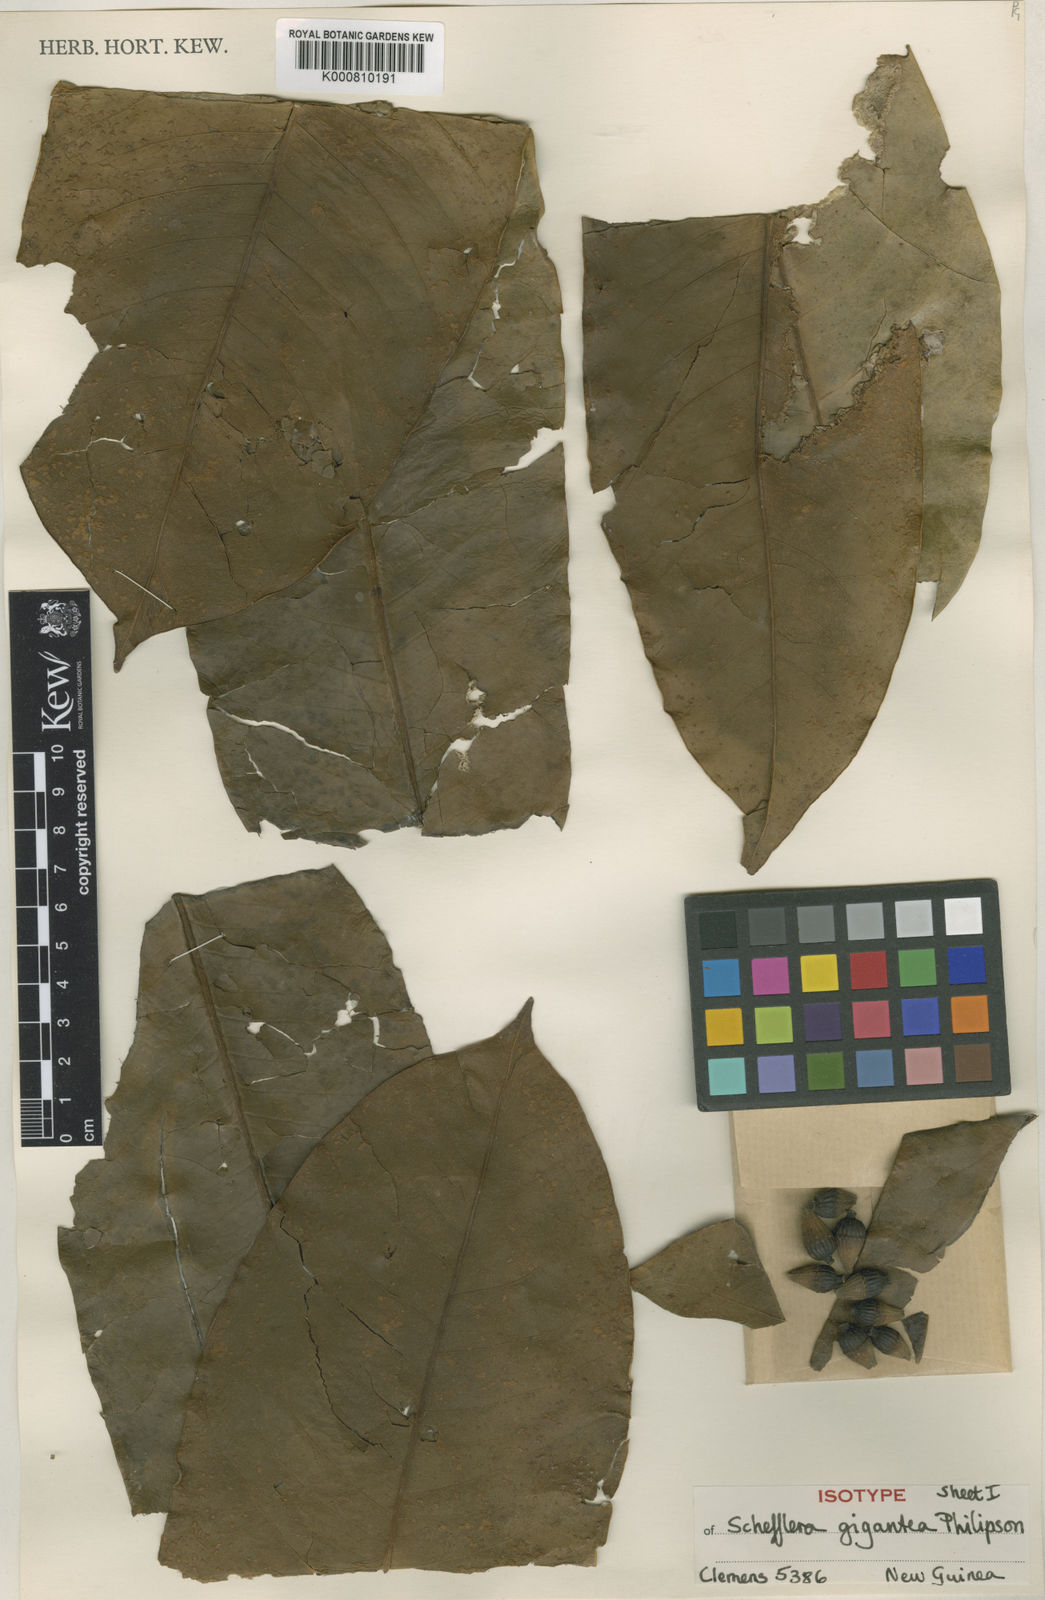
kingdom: Plantae
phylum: Tracheophyta
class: Magnoliopsida
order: Apiales
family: Araliaceae
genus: Heptapleurum
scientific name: Heptapleurum pachystylum
